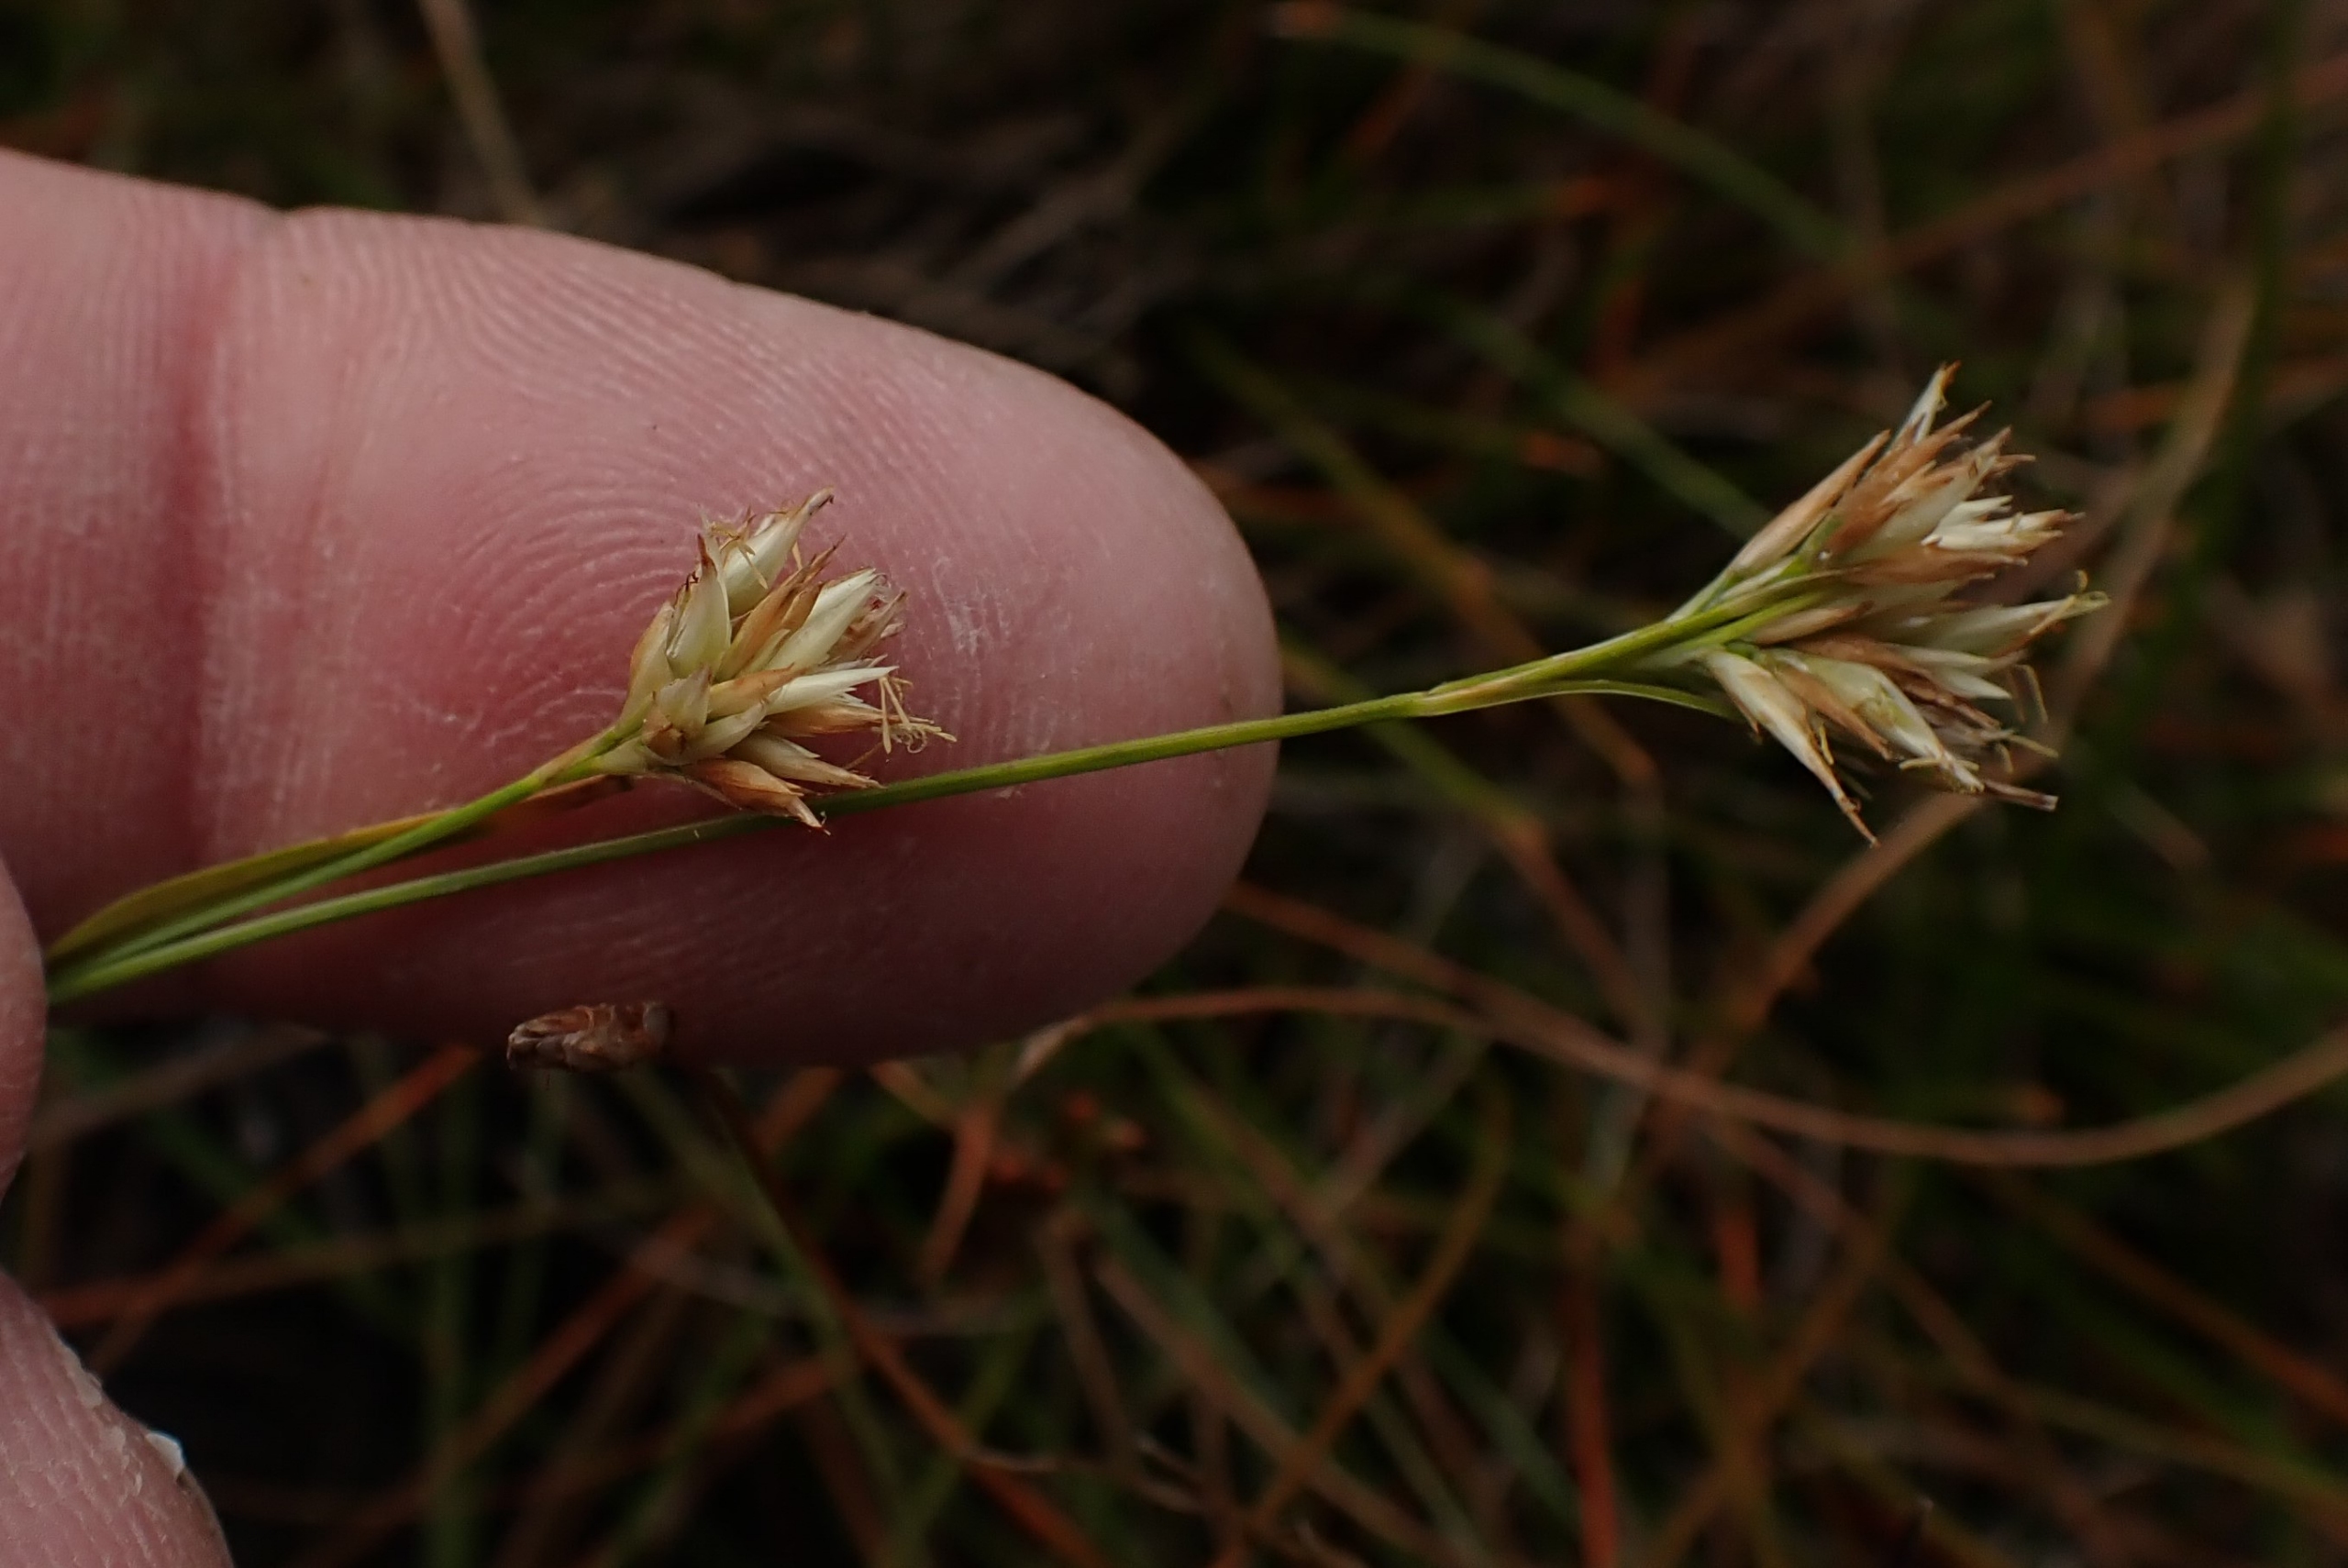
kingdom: Plantae
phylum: Tracheophyta
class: Liliopsida
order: Poales
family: Cyperaceae
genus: Rhynchospora
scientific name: Rhynchospora alba
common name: Hvid næbfrø
